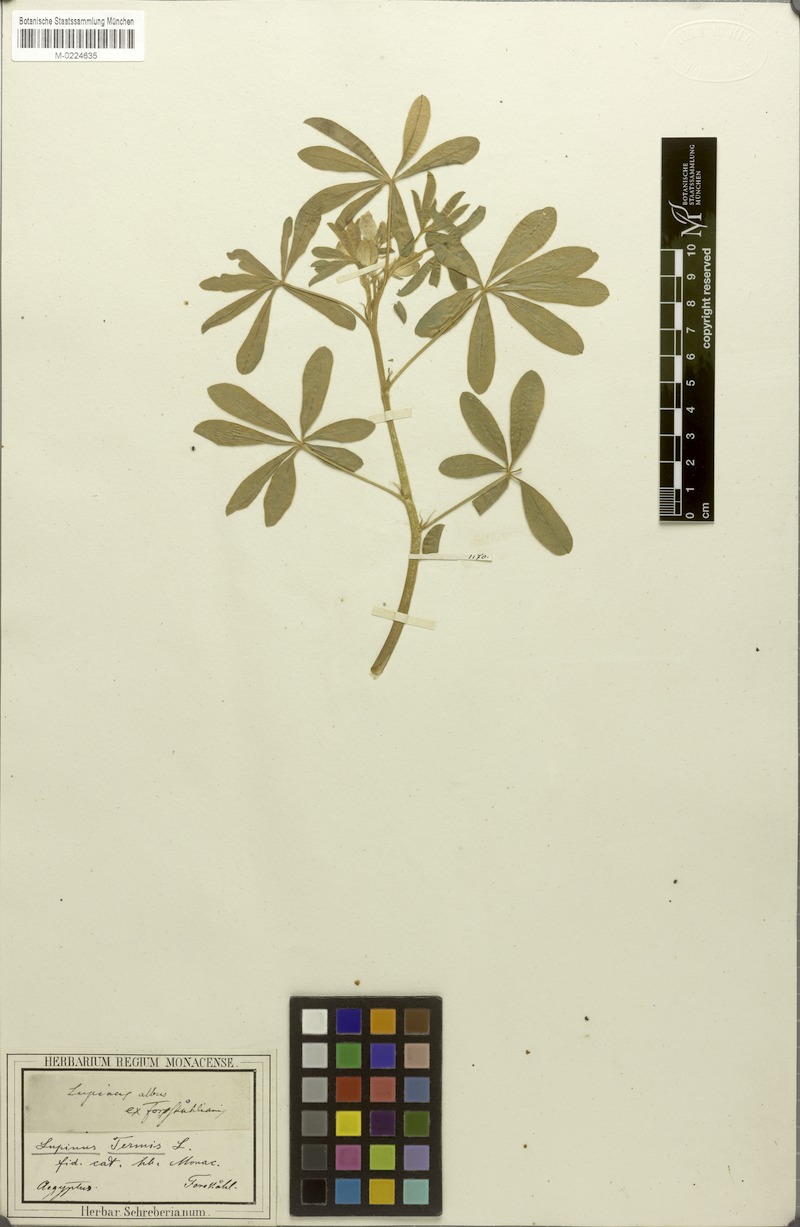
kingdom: Plantae
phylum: Tracheophyta
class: Magnoliopsida
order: Fabales
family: Fabaceae
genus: Lupinus
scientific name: Lupinus albus
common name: White lupin
